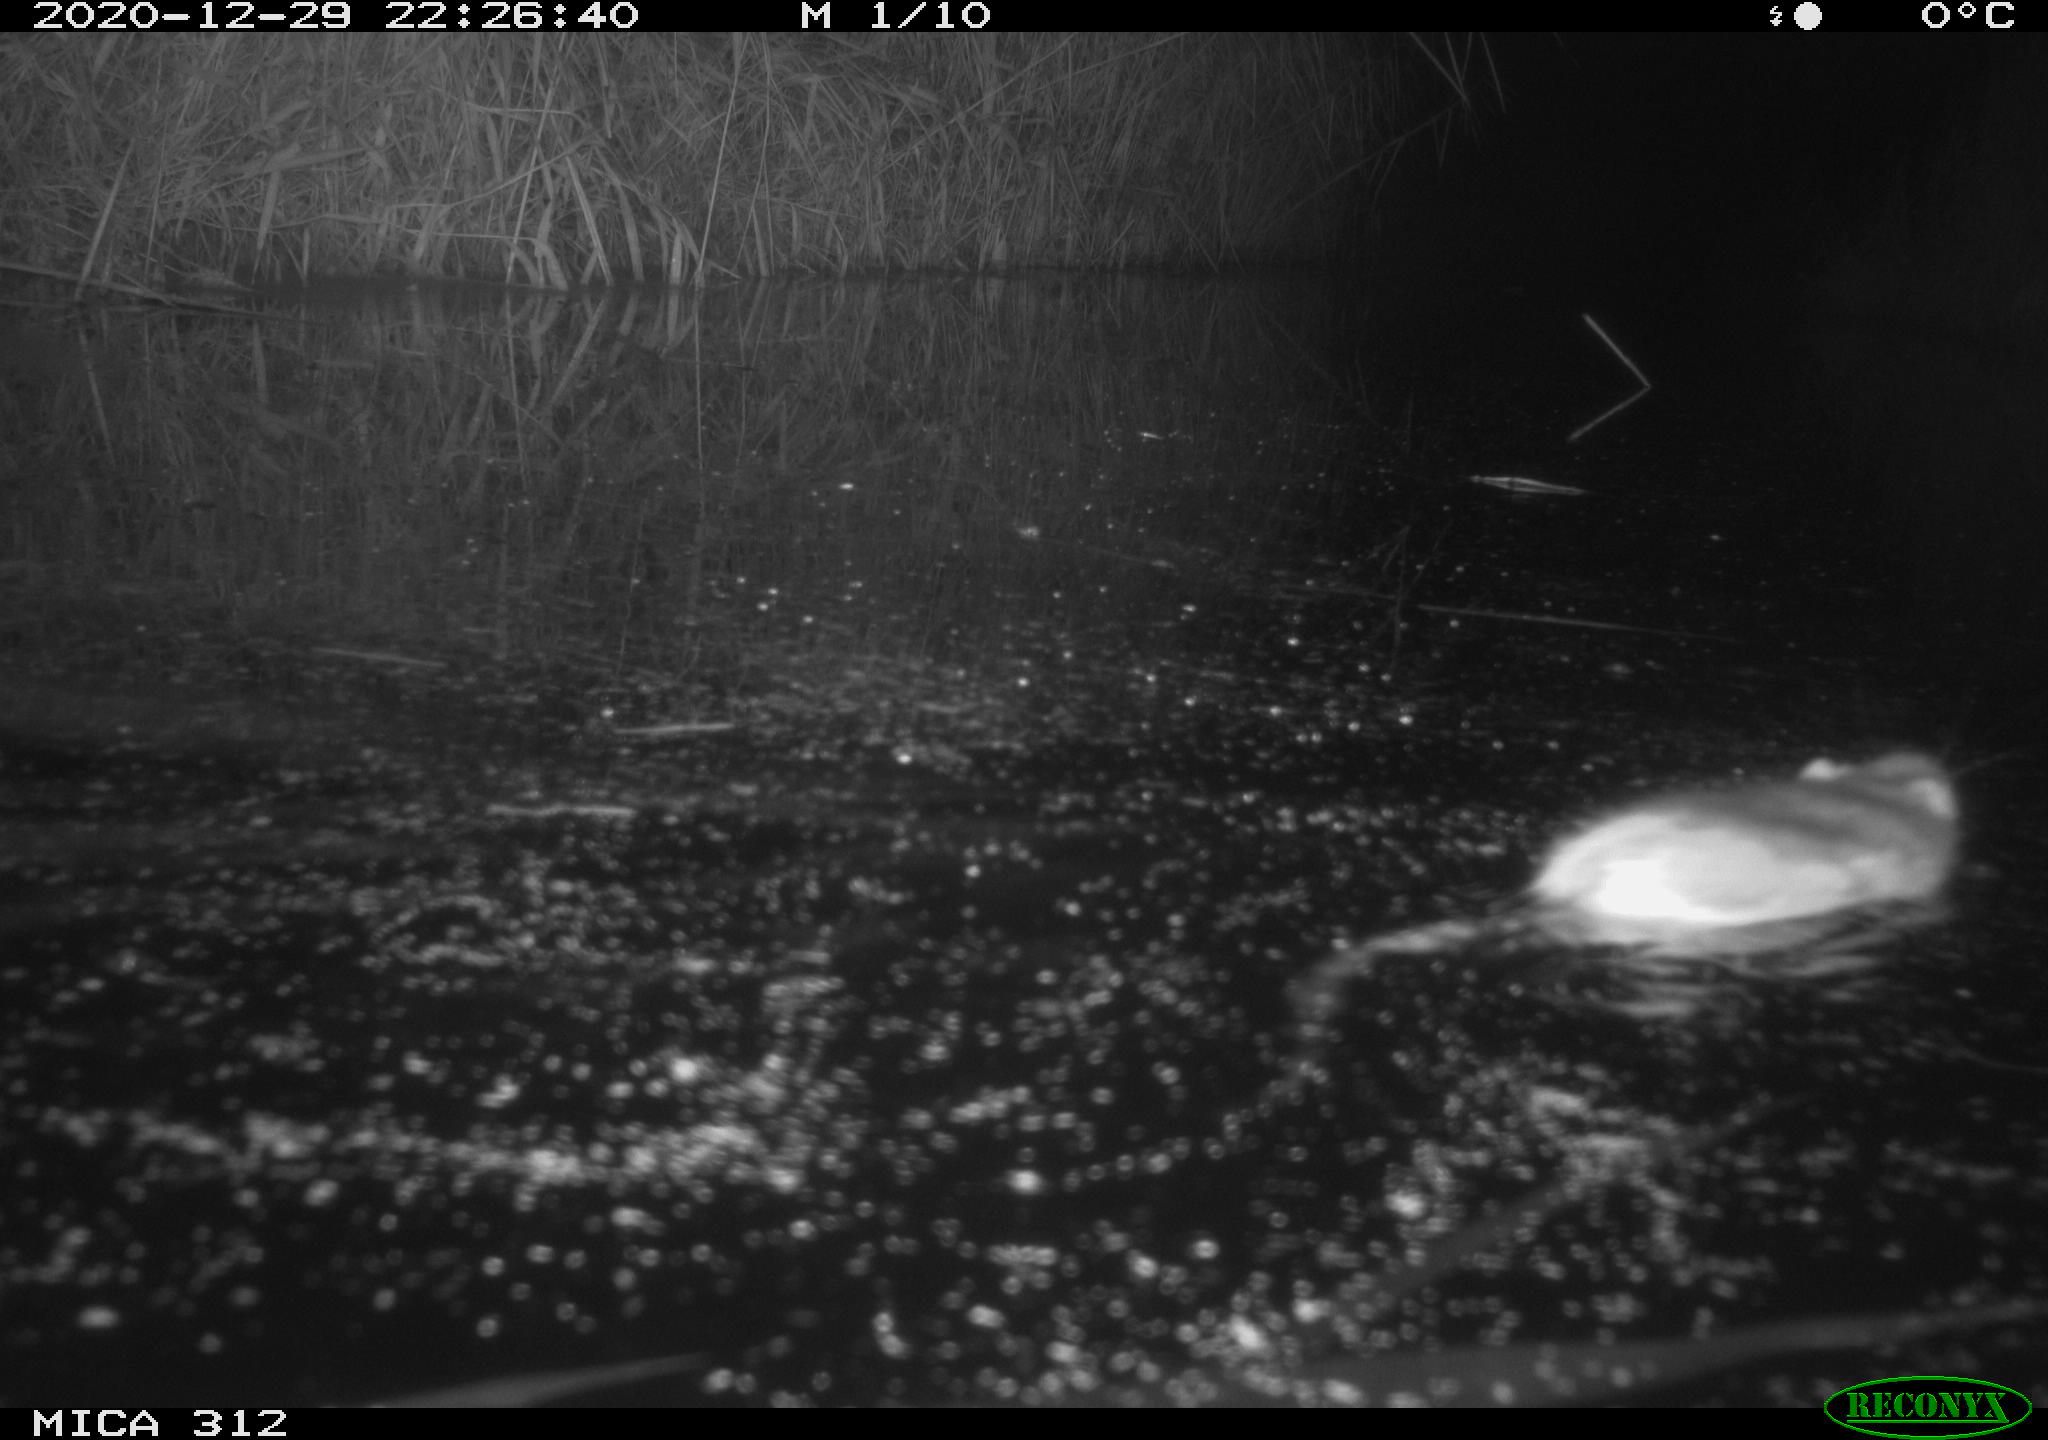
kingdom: Animalia
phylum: Chordata
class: Mammalia
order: Rodentia
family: Muridae
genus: Rattus
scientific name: Rattus norvegicus
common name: Brown rat
